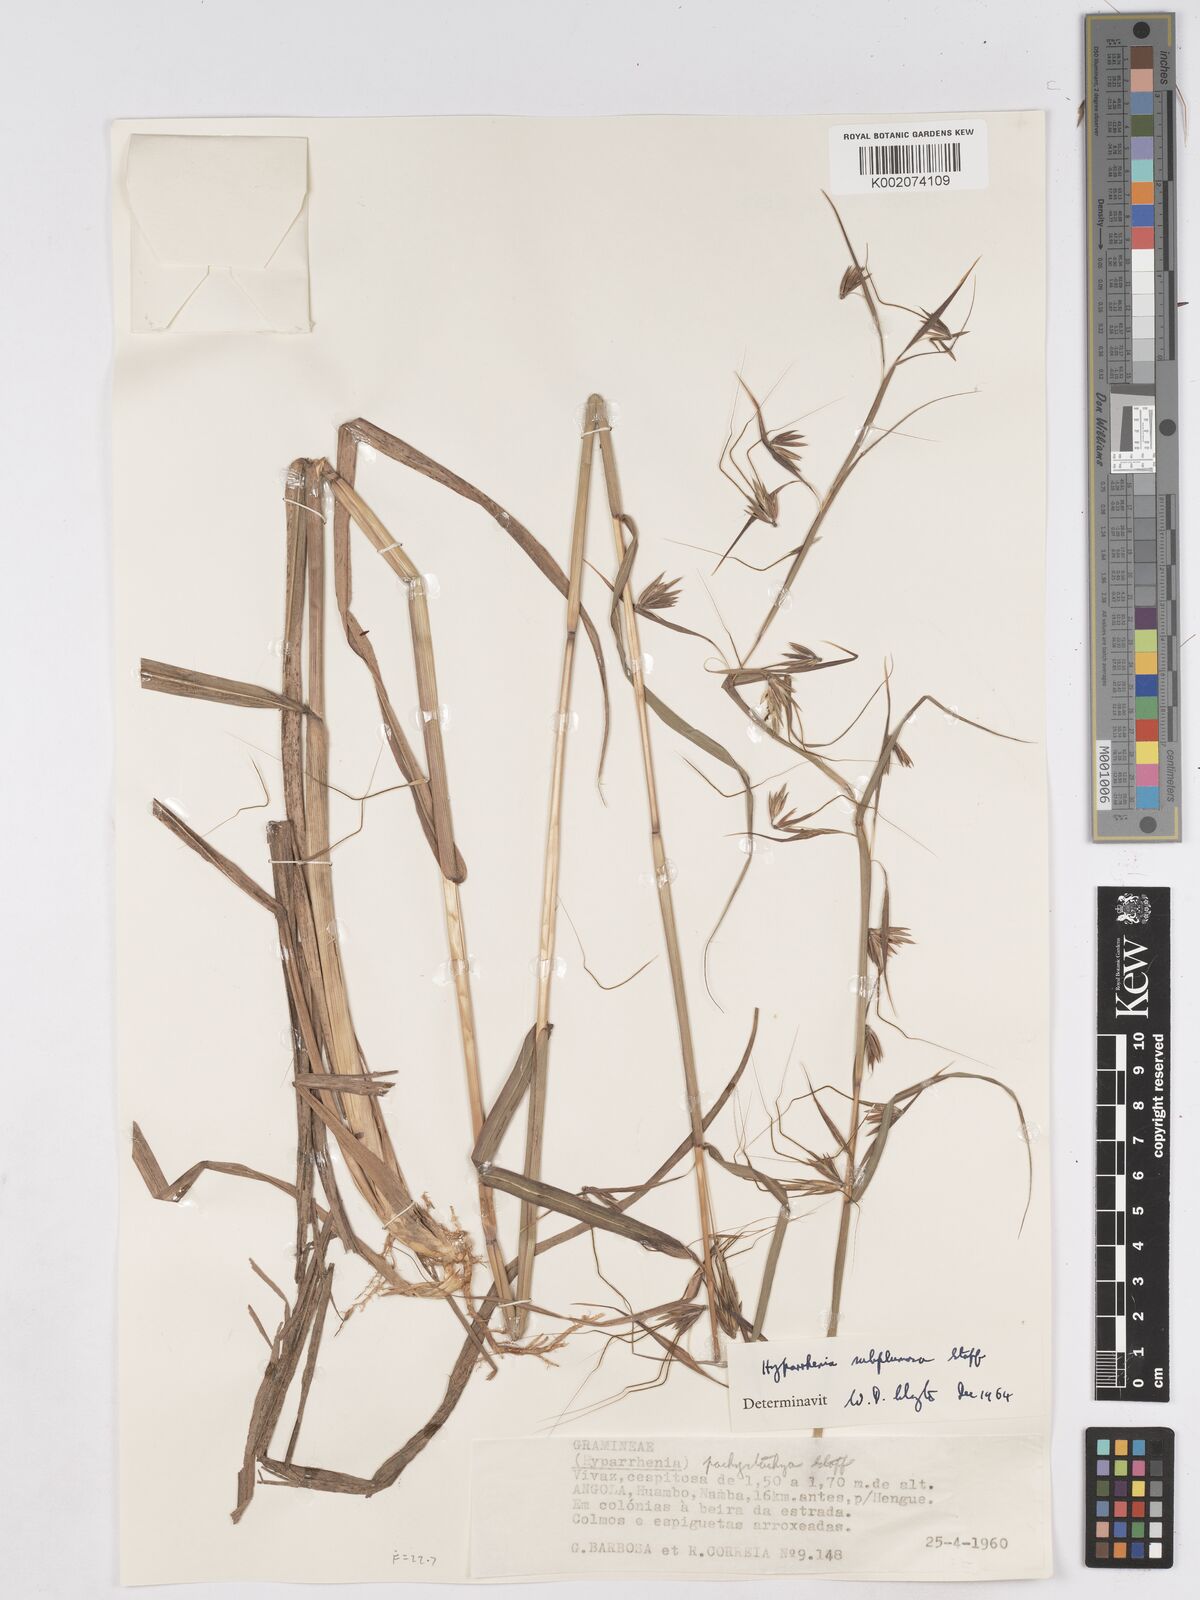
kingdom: Plantae
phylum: Tracheophyta
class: Liliopsida
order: Poales
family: Poaceae
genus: Hyparrhenia
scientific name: Hyparrhenia subplumosa
